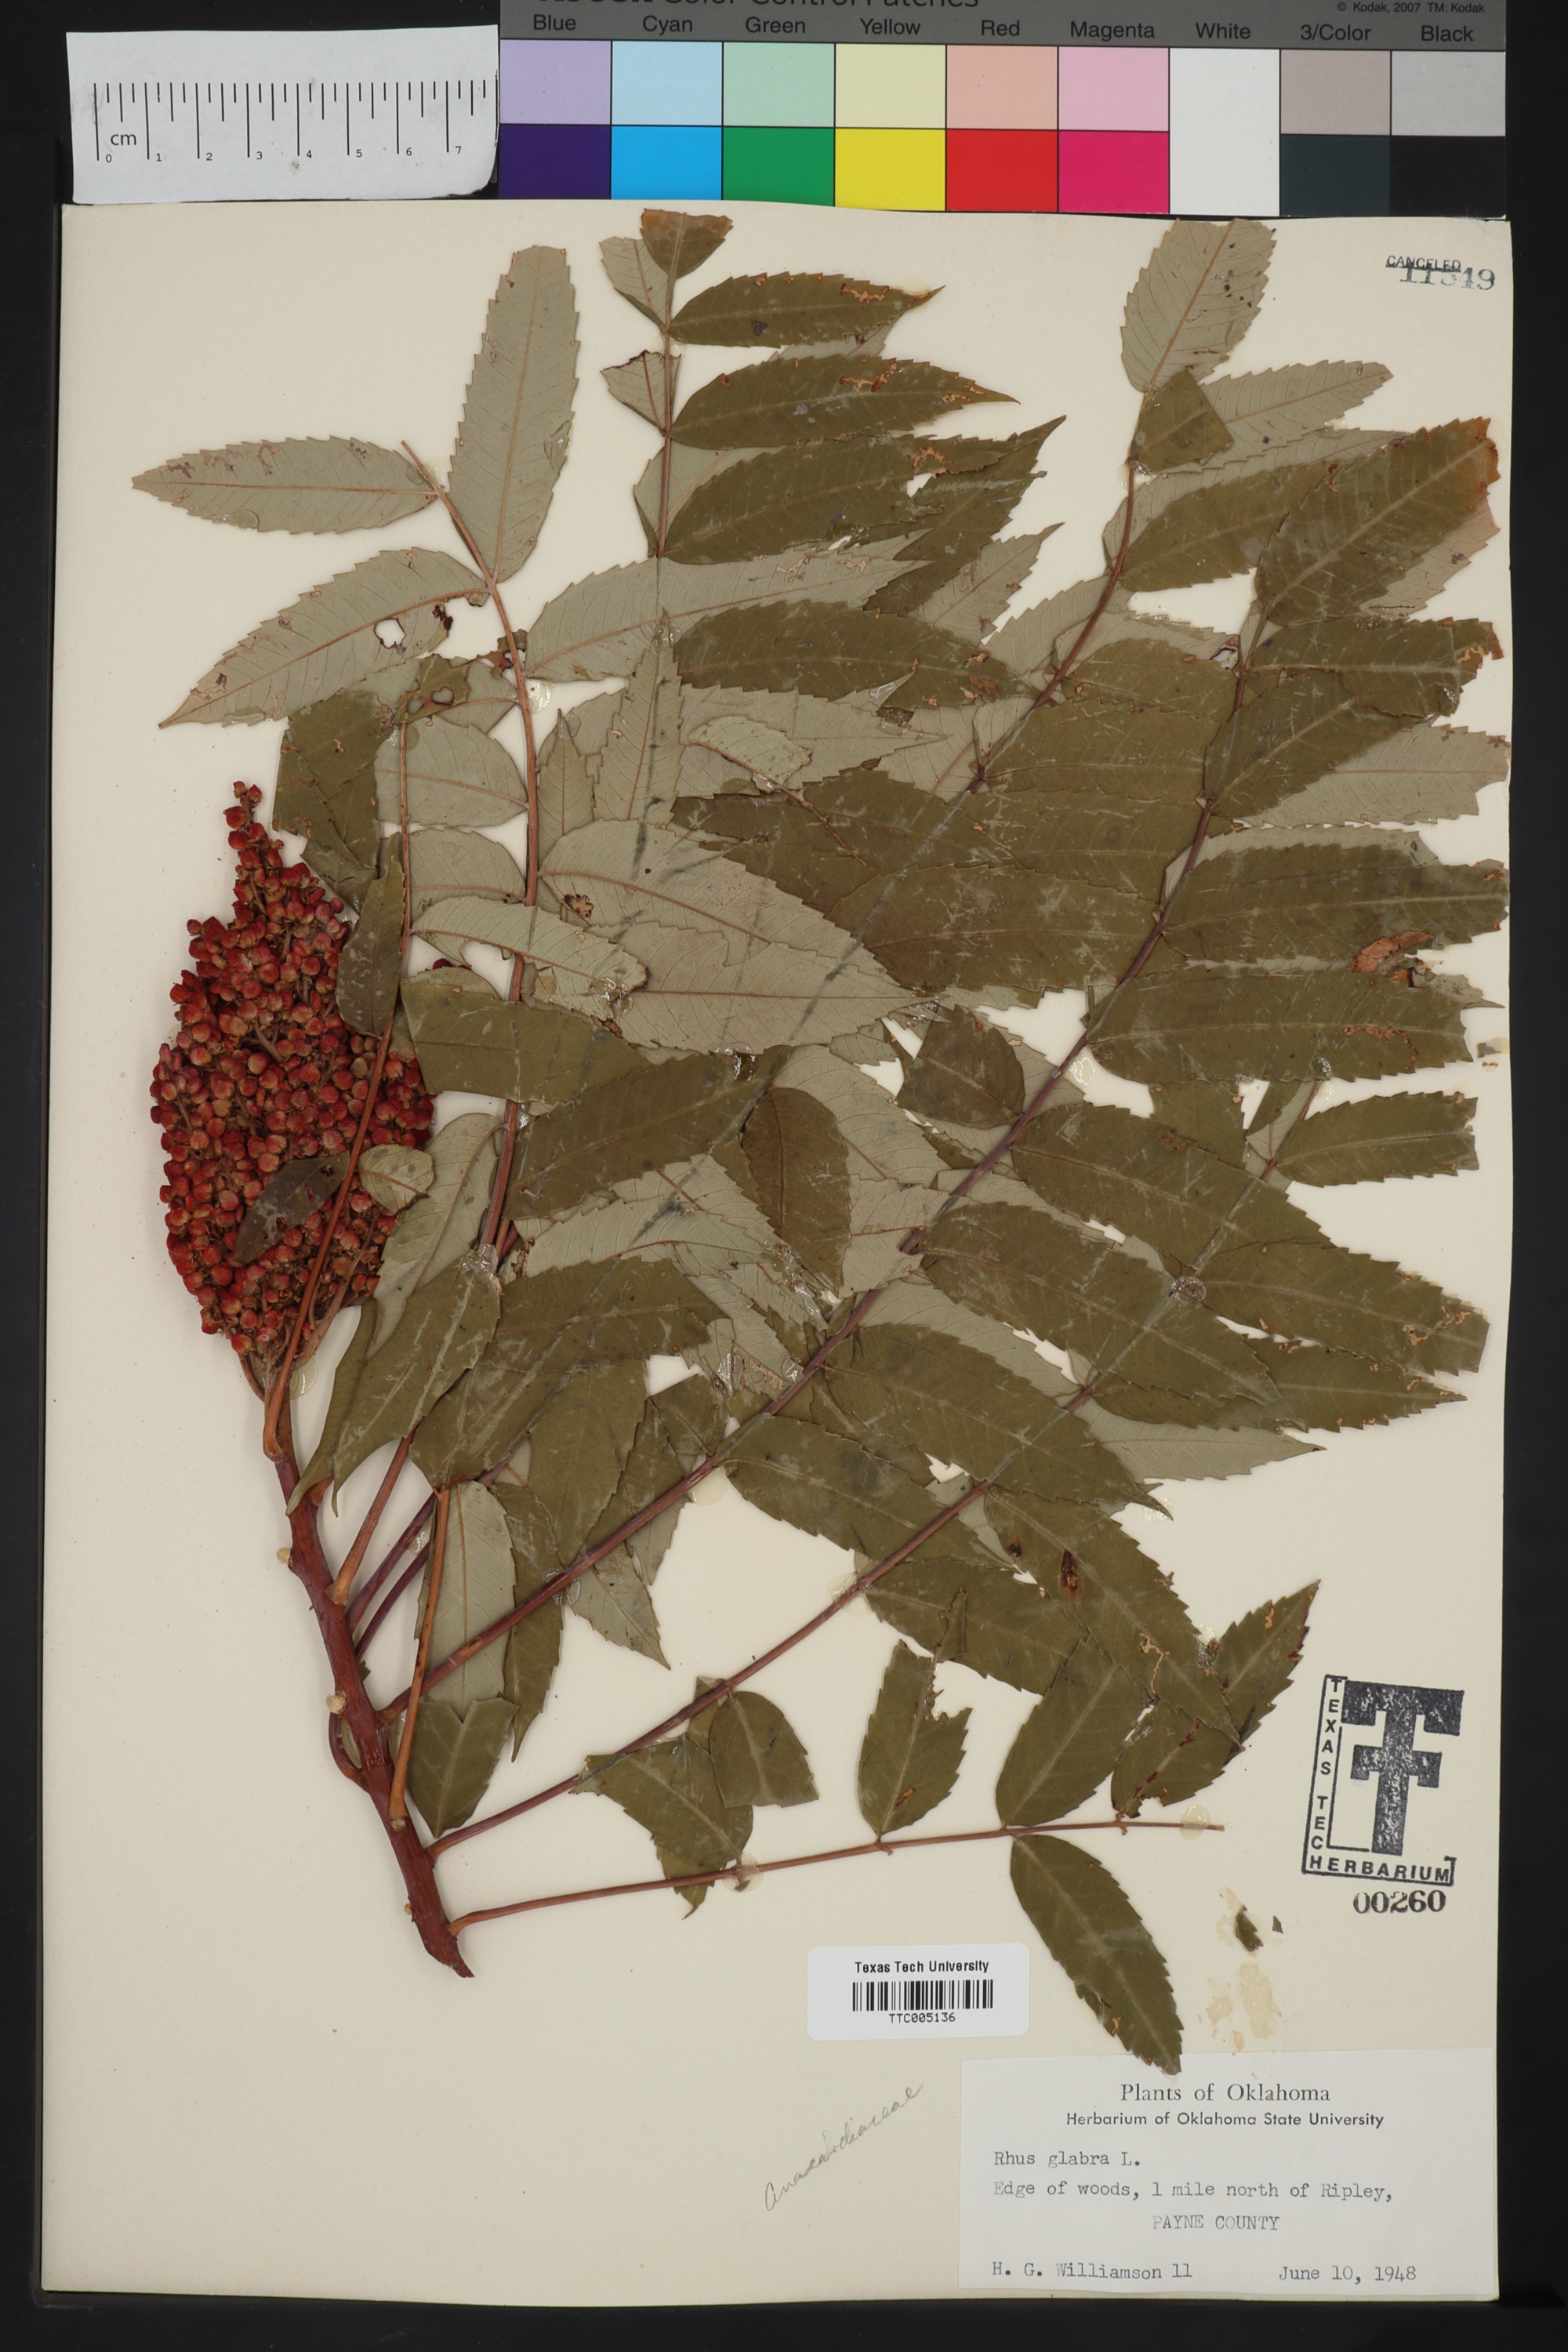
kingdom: Plantae
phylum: Tracheophyta
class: Magnoliopsida
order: Sapindales
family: Anacardiaceae
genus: Rhus
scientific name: Rhus glabra
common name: Scarlet sumac
